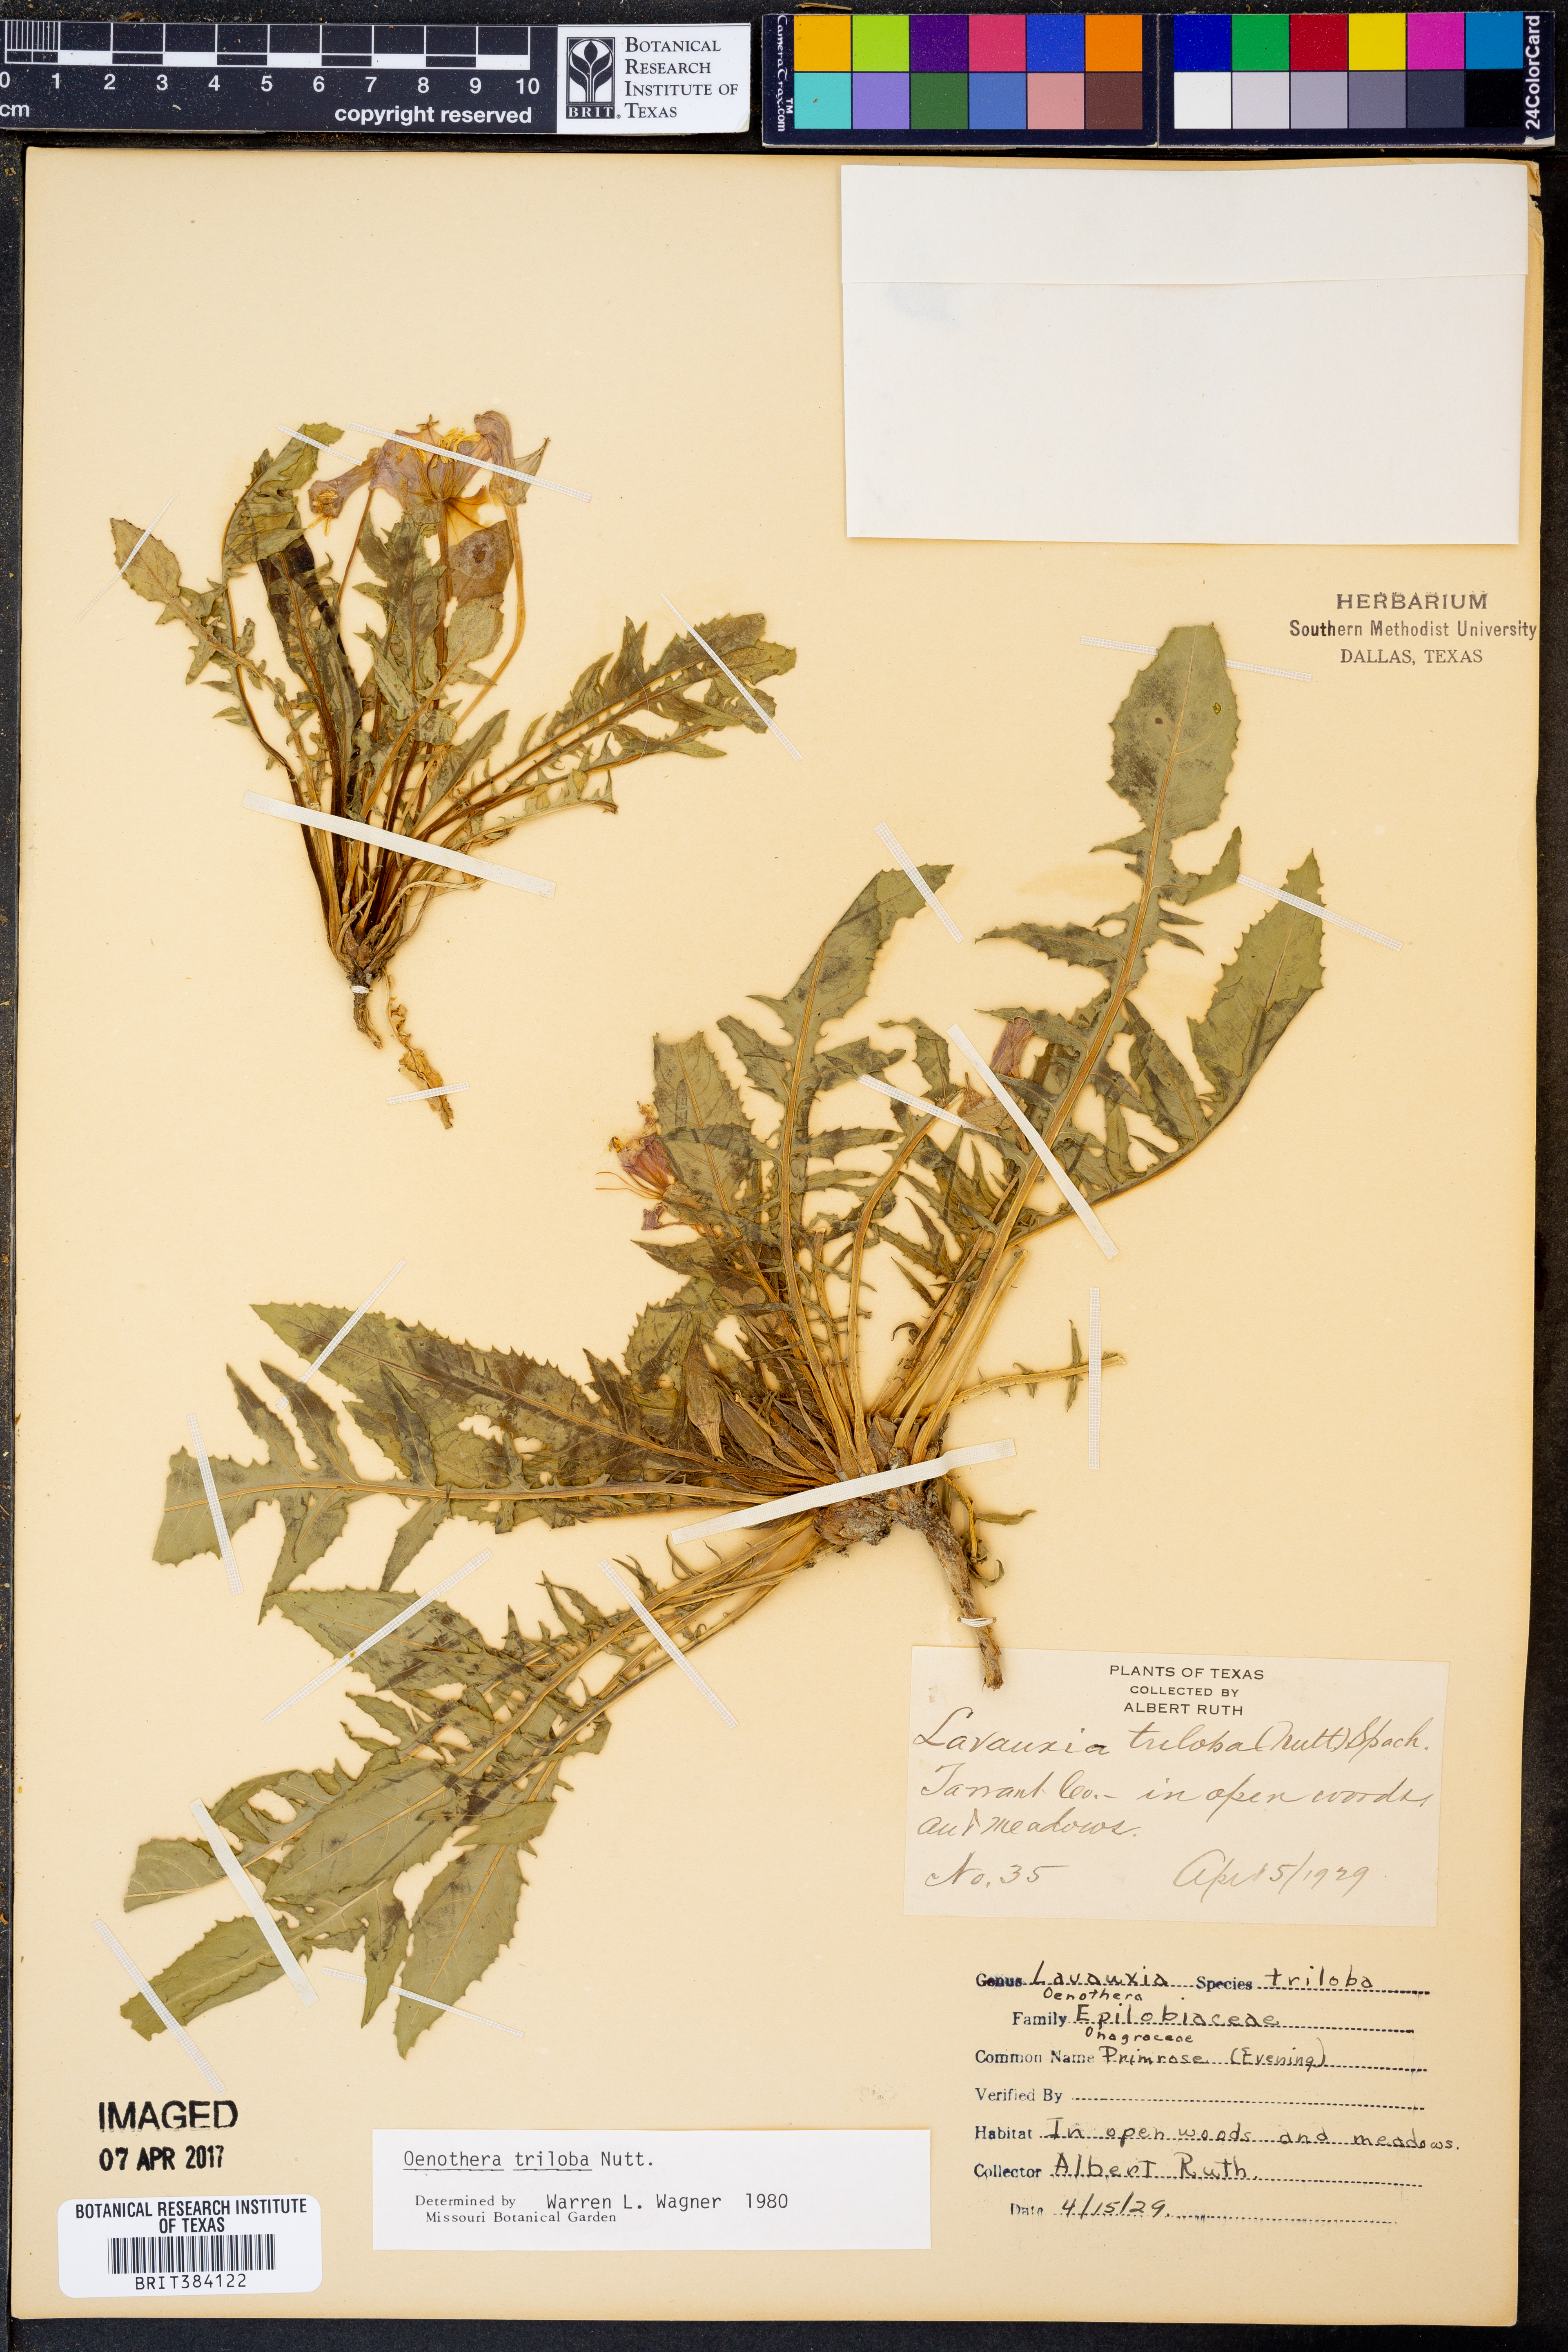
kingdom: Plantae
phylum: Tracheophyta
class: Magnoliopsida
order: Myrtales
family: Onagraceae
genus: Oenothera
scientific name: Oenothera triloba
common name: Sessile evening-primrose
